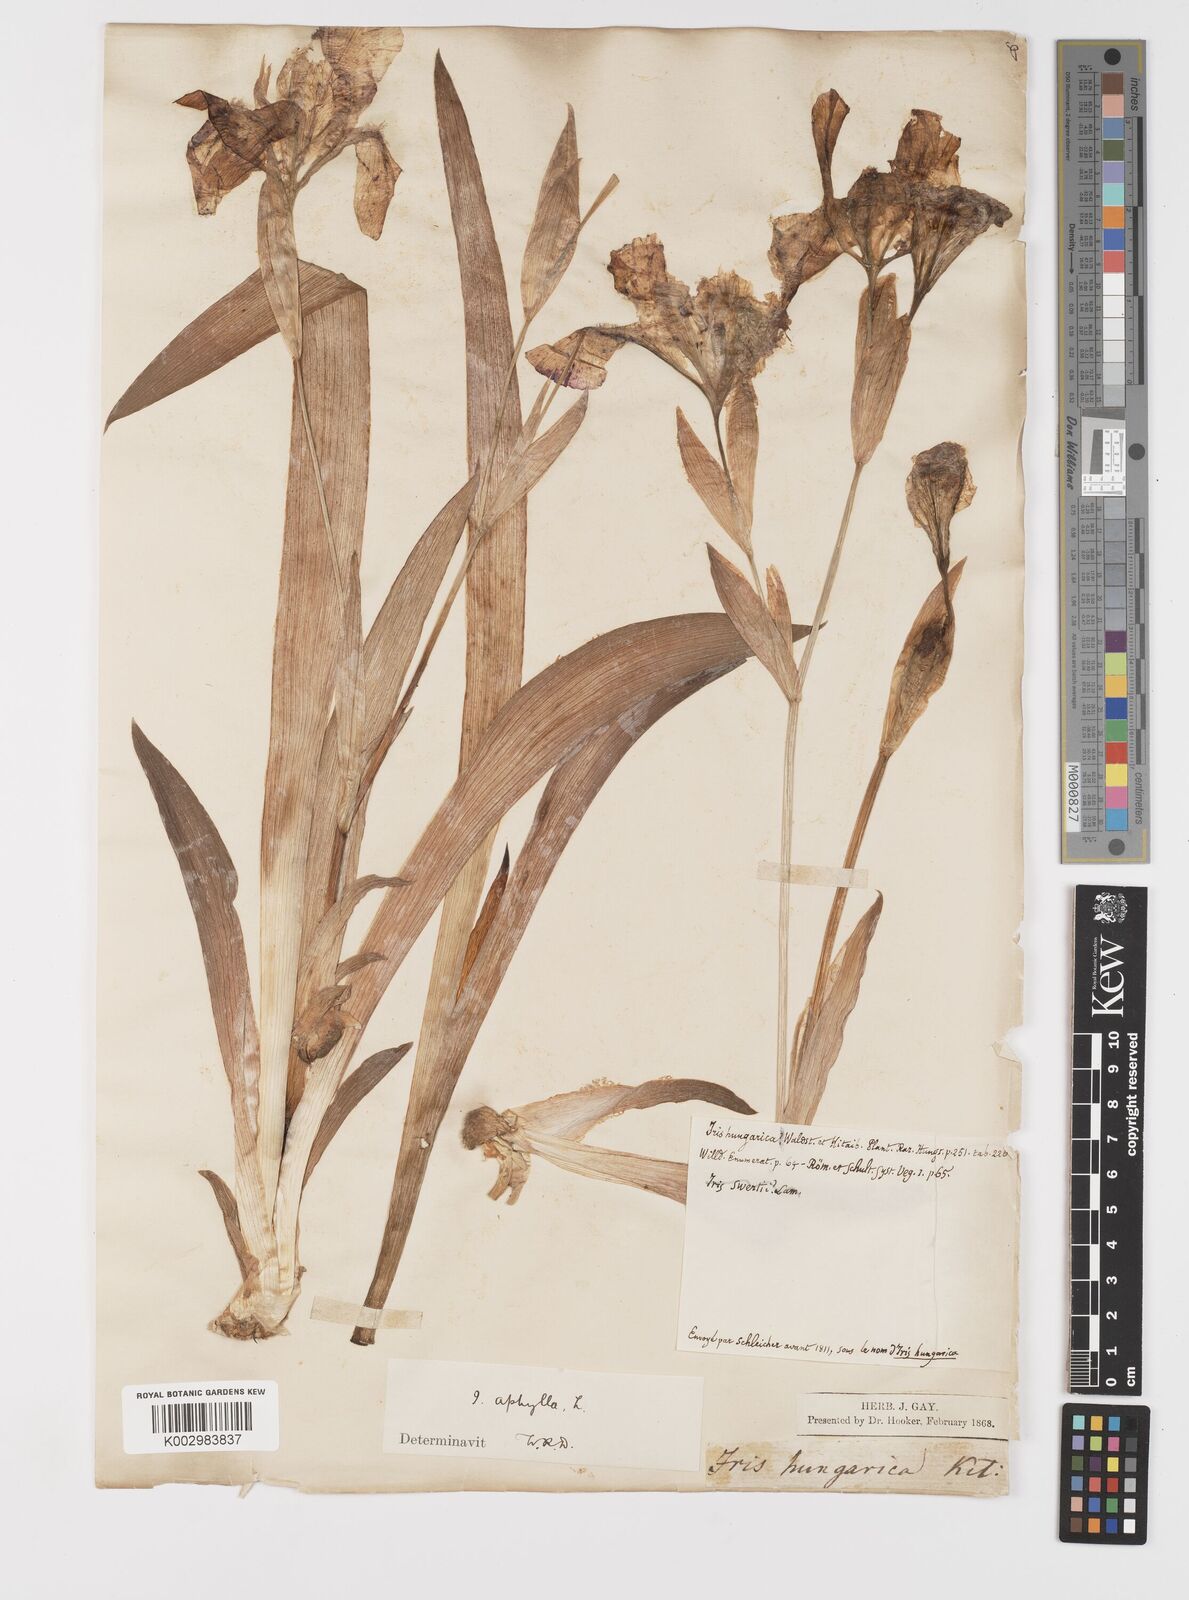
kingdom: Plantae
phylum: Tracheophyta
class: Liliopsida
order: Asparagales
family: Iridaceae
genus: Iris
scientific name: Iris aphylla
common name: Stool iris
